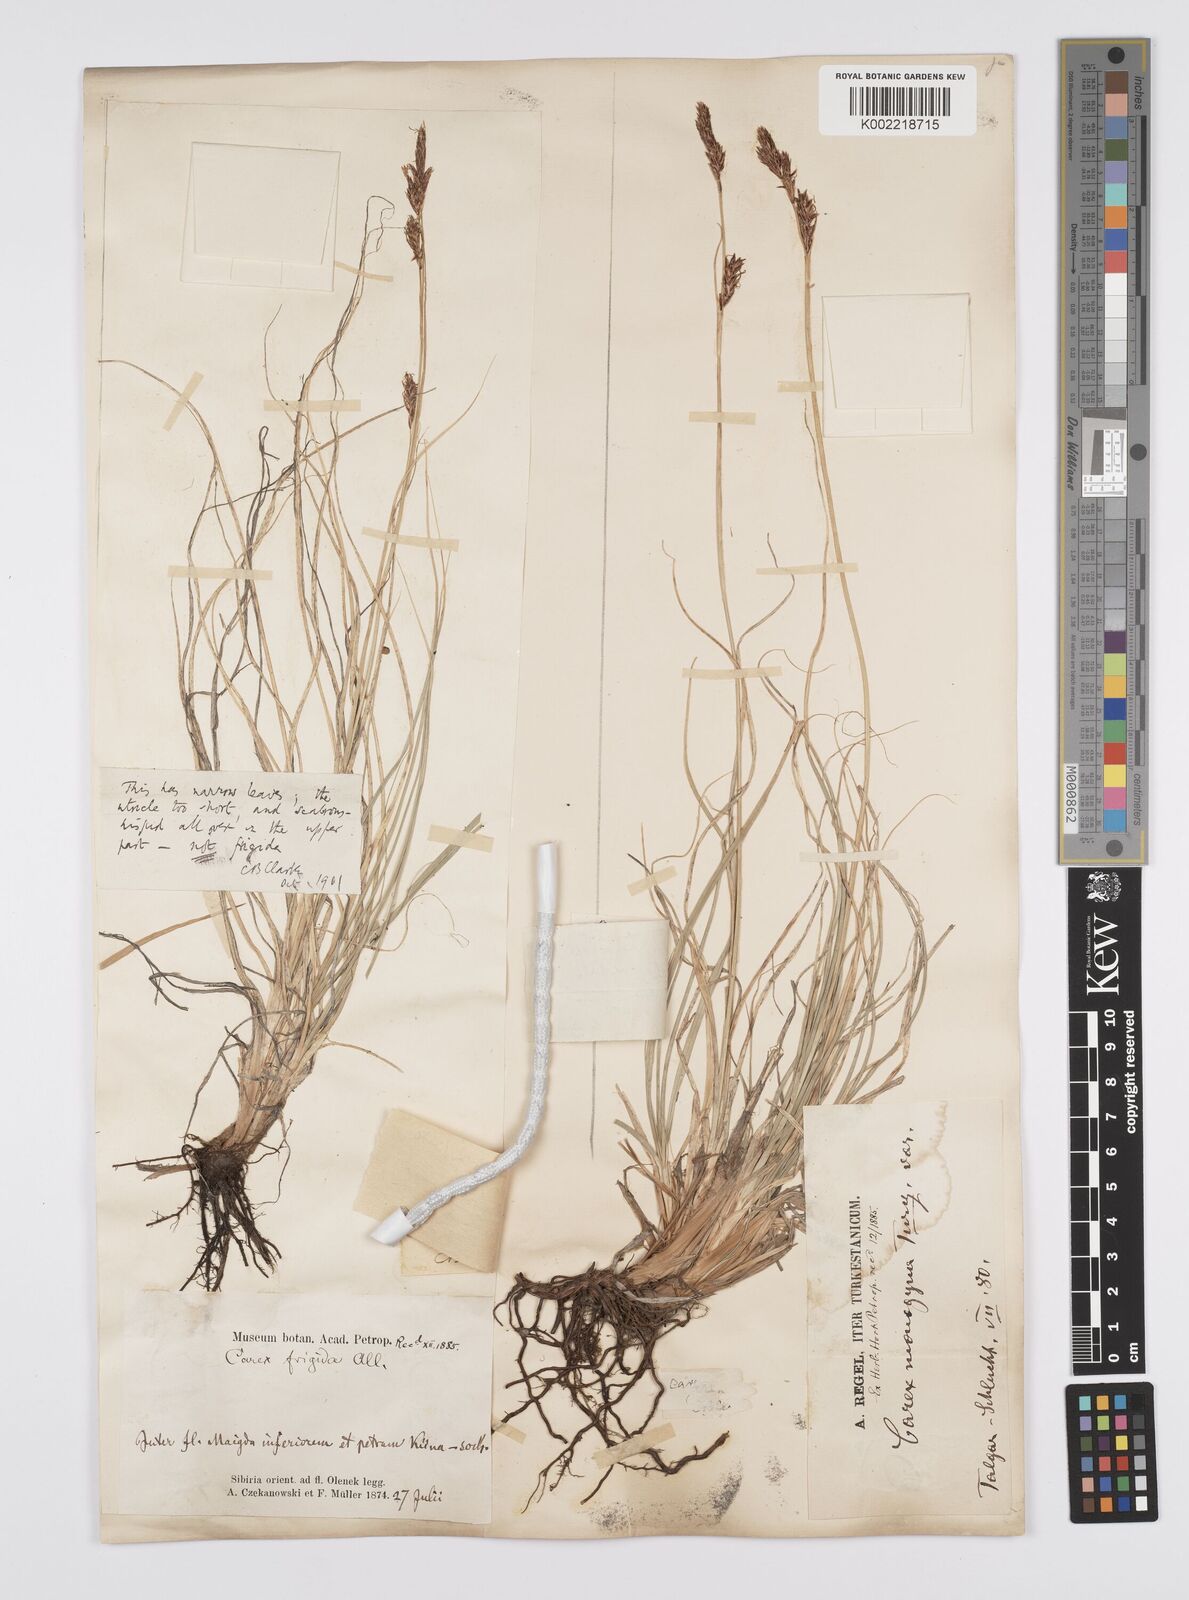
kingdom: Plantae
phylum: Tracheophyta
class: Liliopsida
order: Poales
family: Cyperaceae
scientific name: Cyperaceae
